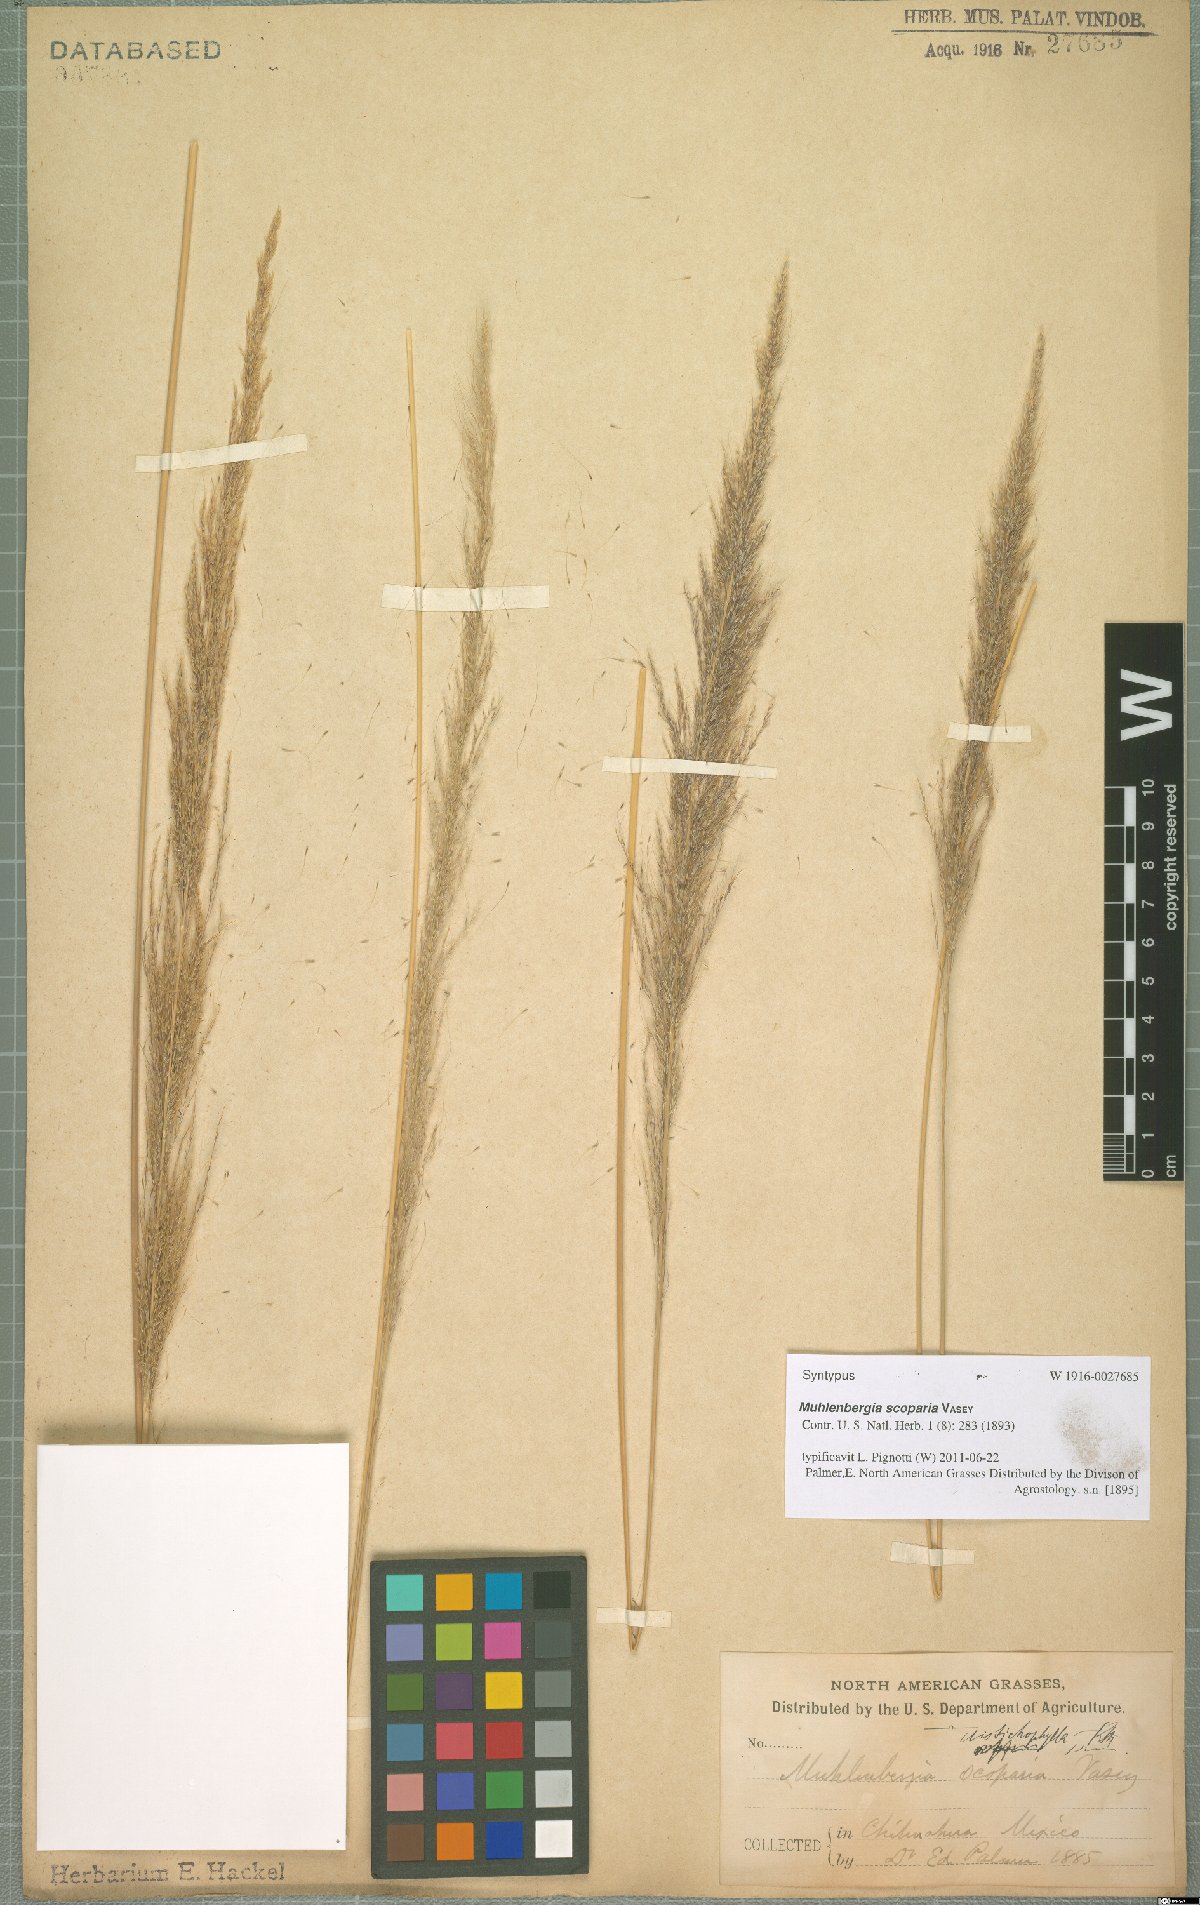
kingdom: Plantae
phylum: Tracheophyta
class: Liliopsida
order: Poales
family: Poaceae
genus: Muhlenbergia
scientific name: Muhlenbergia scoparia
